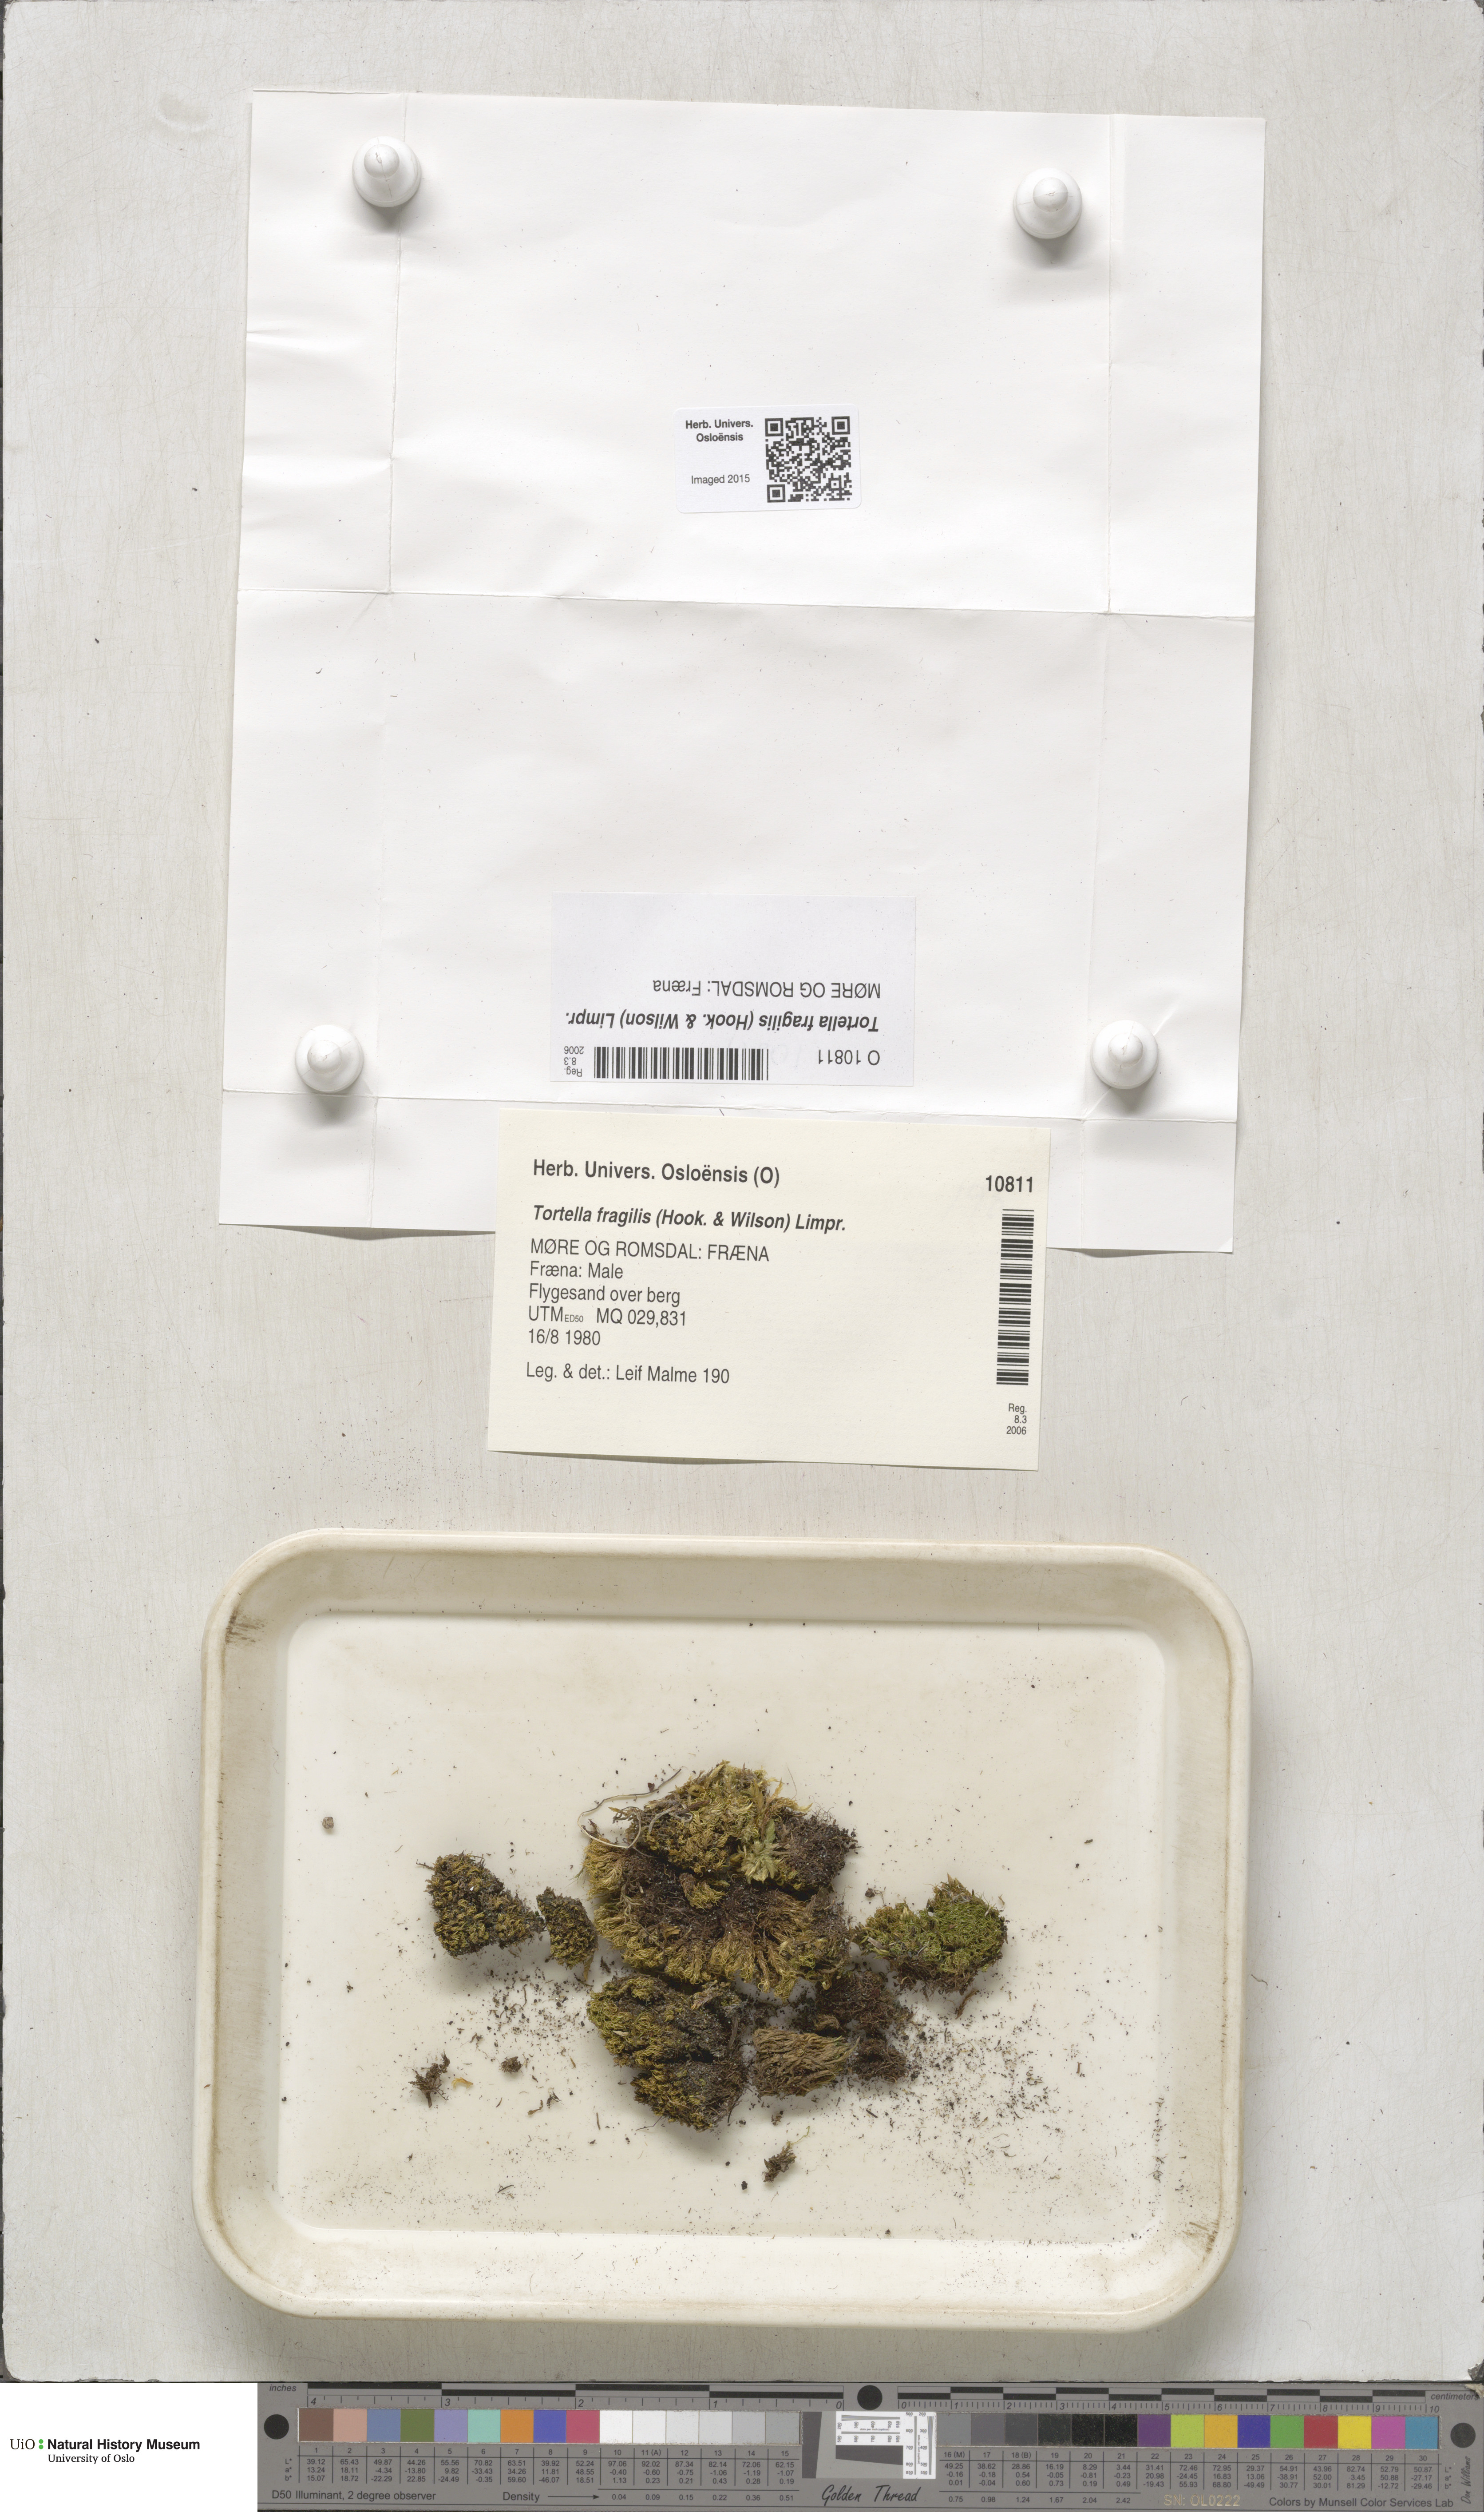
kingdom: Plantae
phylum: Bryophyta
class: Bryopsida
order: Pottiales
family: Pottiaceae
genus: Tortella
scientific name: Tortella fragilis
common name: Fragile twisted moss
